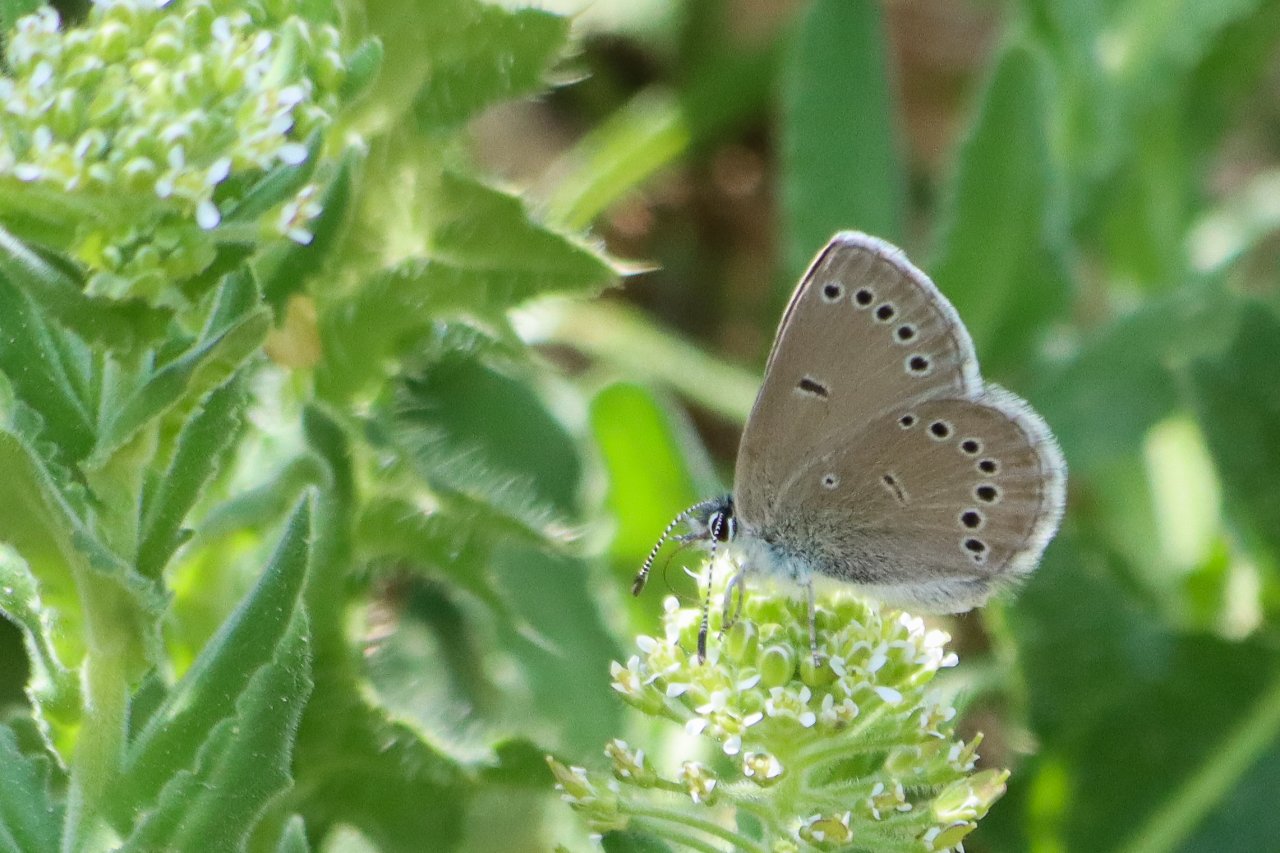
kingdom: Animalia
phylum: Arthropoda
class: Insecta
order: Lepidoptera
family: Lycaenidae
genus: Glaucopsyche
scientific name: Glaucopsyche lygdamus
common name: Silvery Blue
